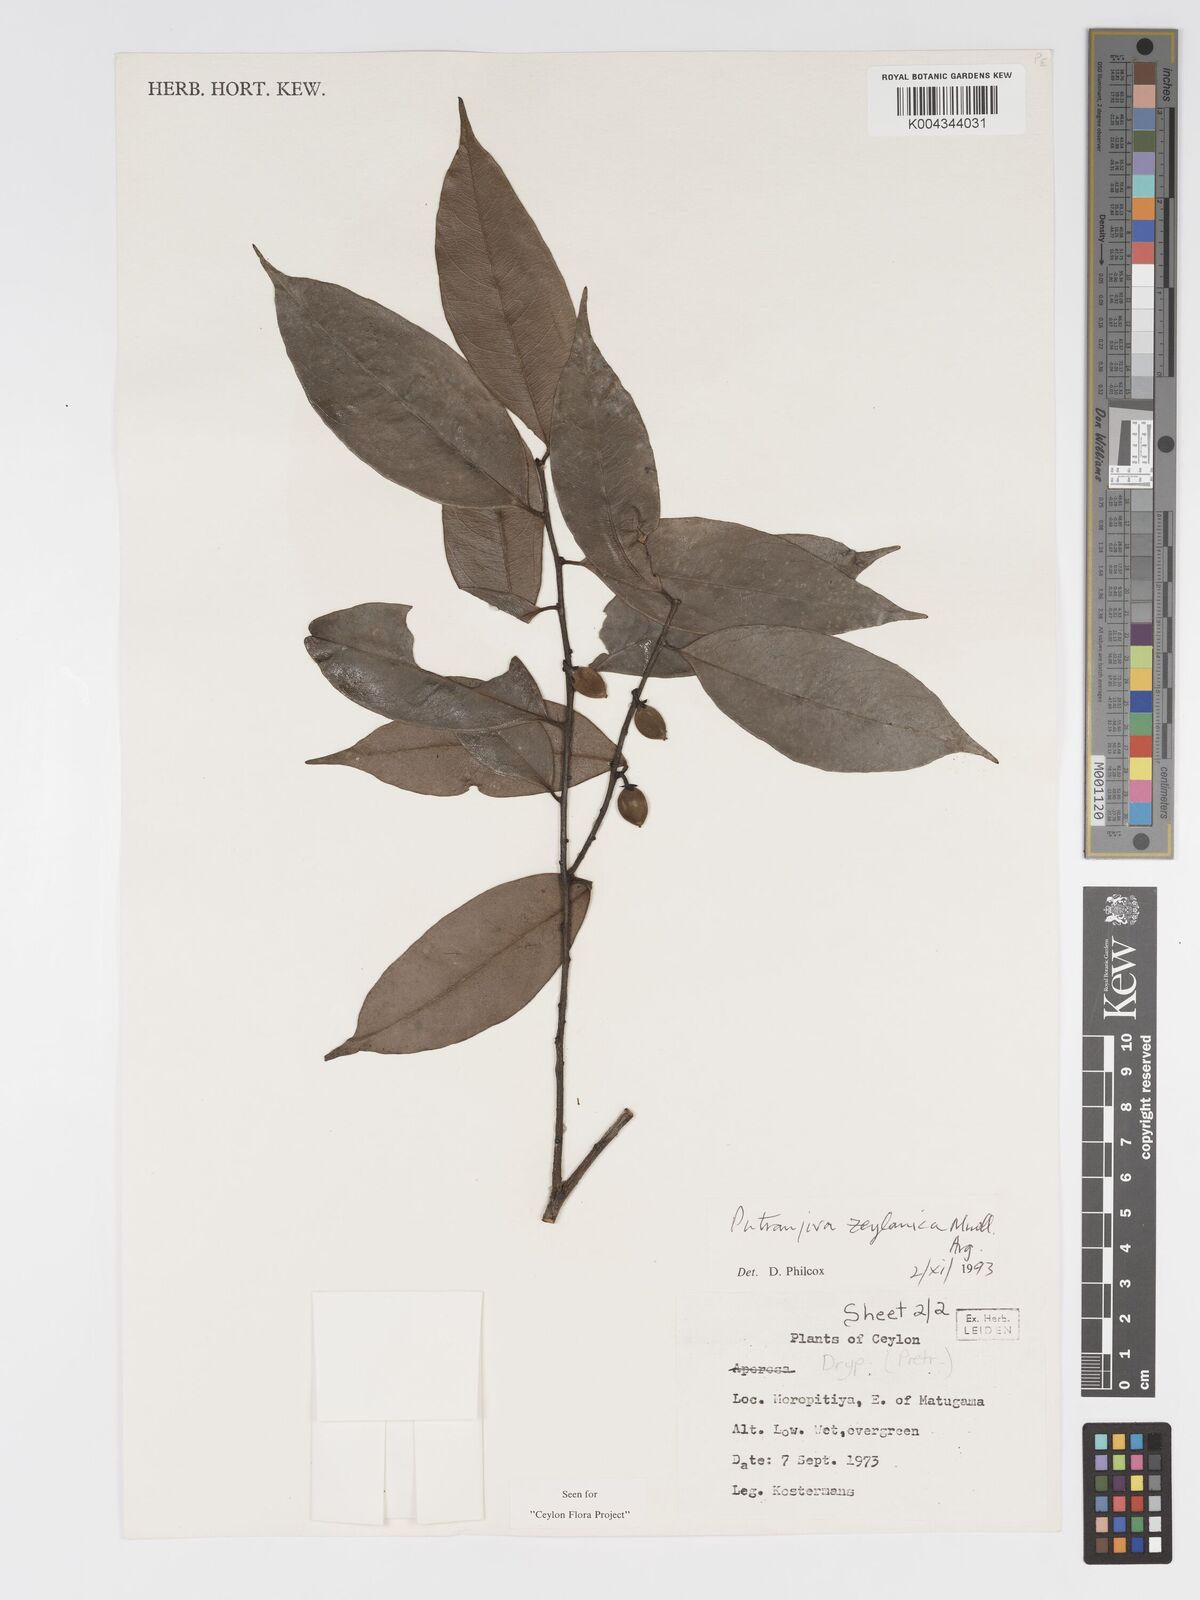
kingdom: Plantae
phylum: Tracheophyta
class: Magnoliopsida
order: Malpighiales
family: Putranjivaceae
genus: Putranjiva
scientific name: Putranjiva zeylanica
